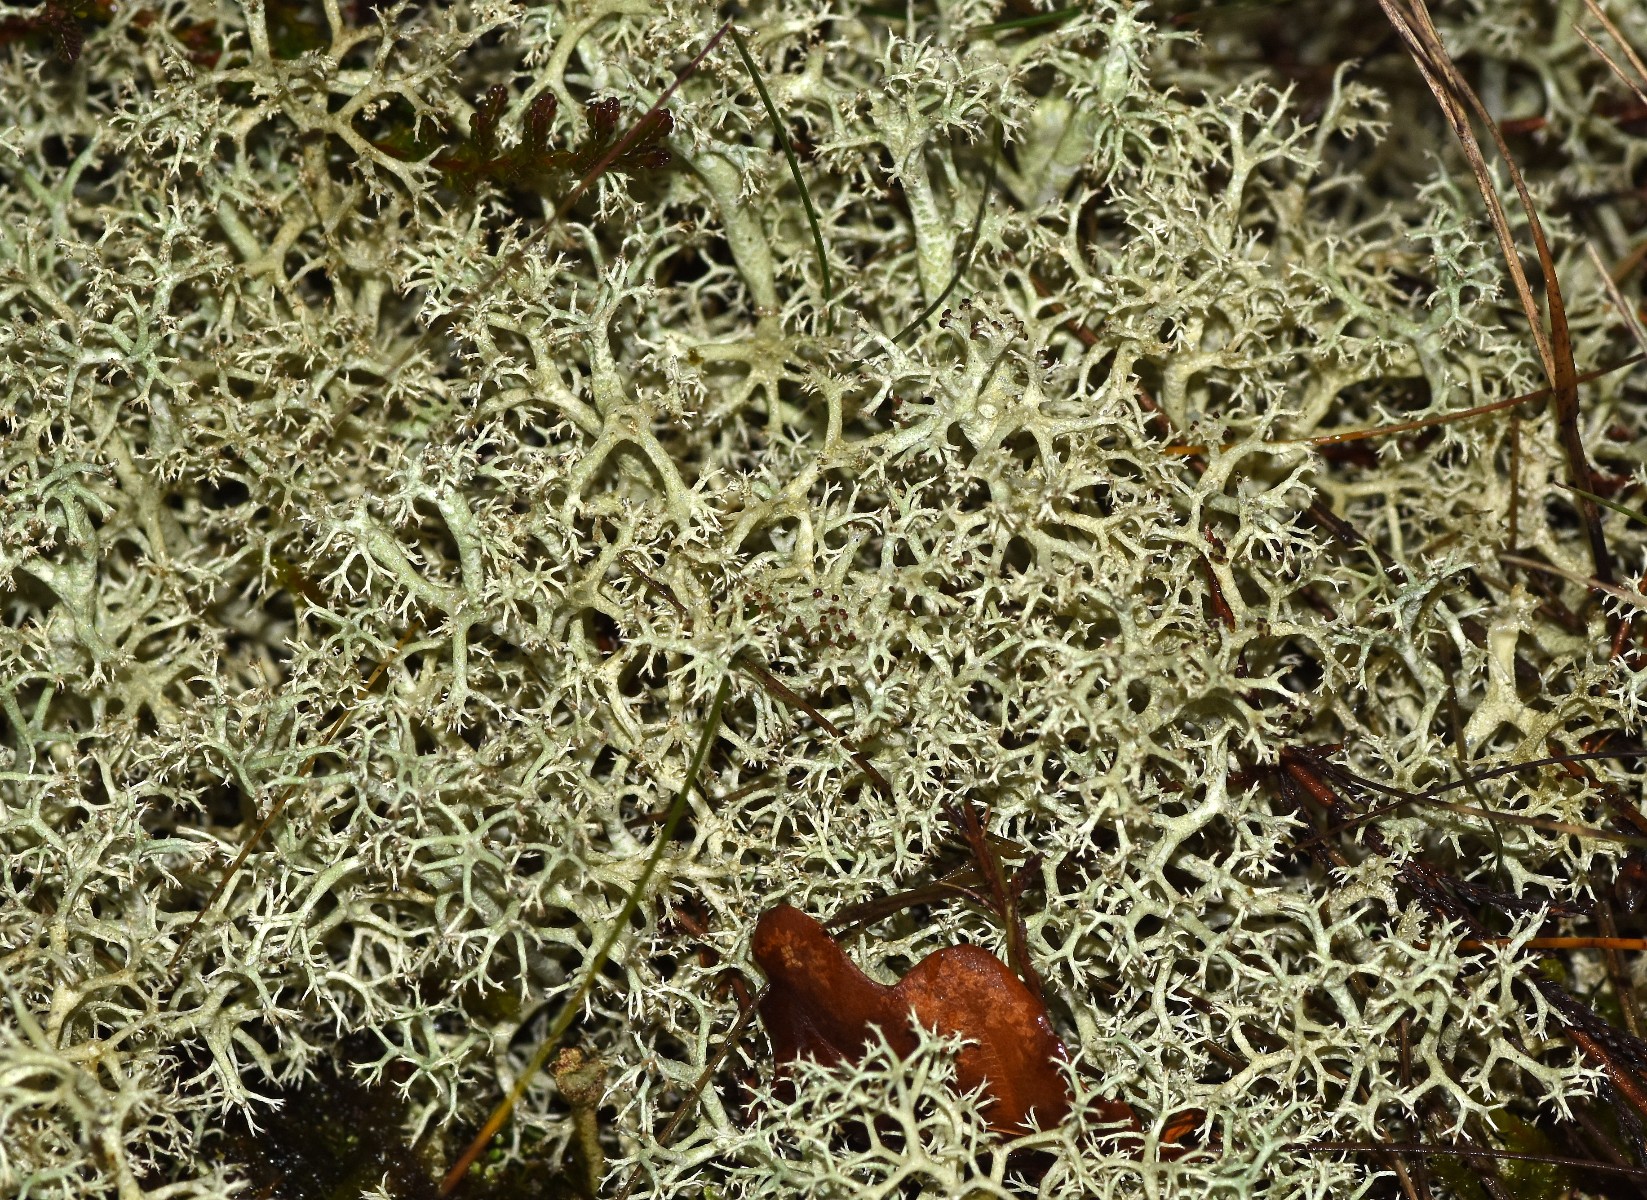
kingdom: Fungi
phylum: Ascomycota
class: Lecanoromycetes
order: Lecanorales
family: Cladoniaceae
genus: Cladonia
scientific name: Cladonia portentosa
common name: hede-rensdyrlav
